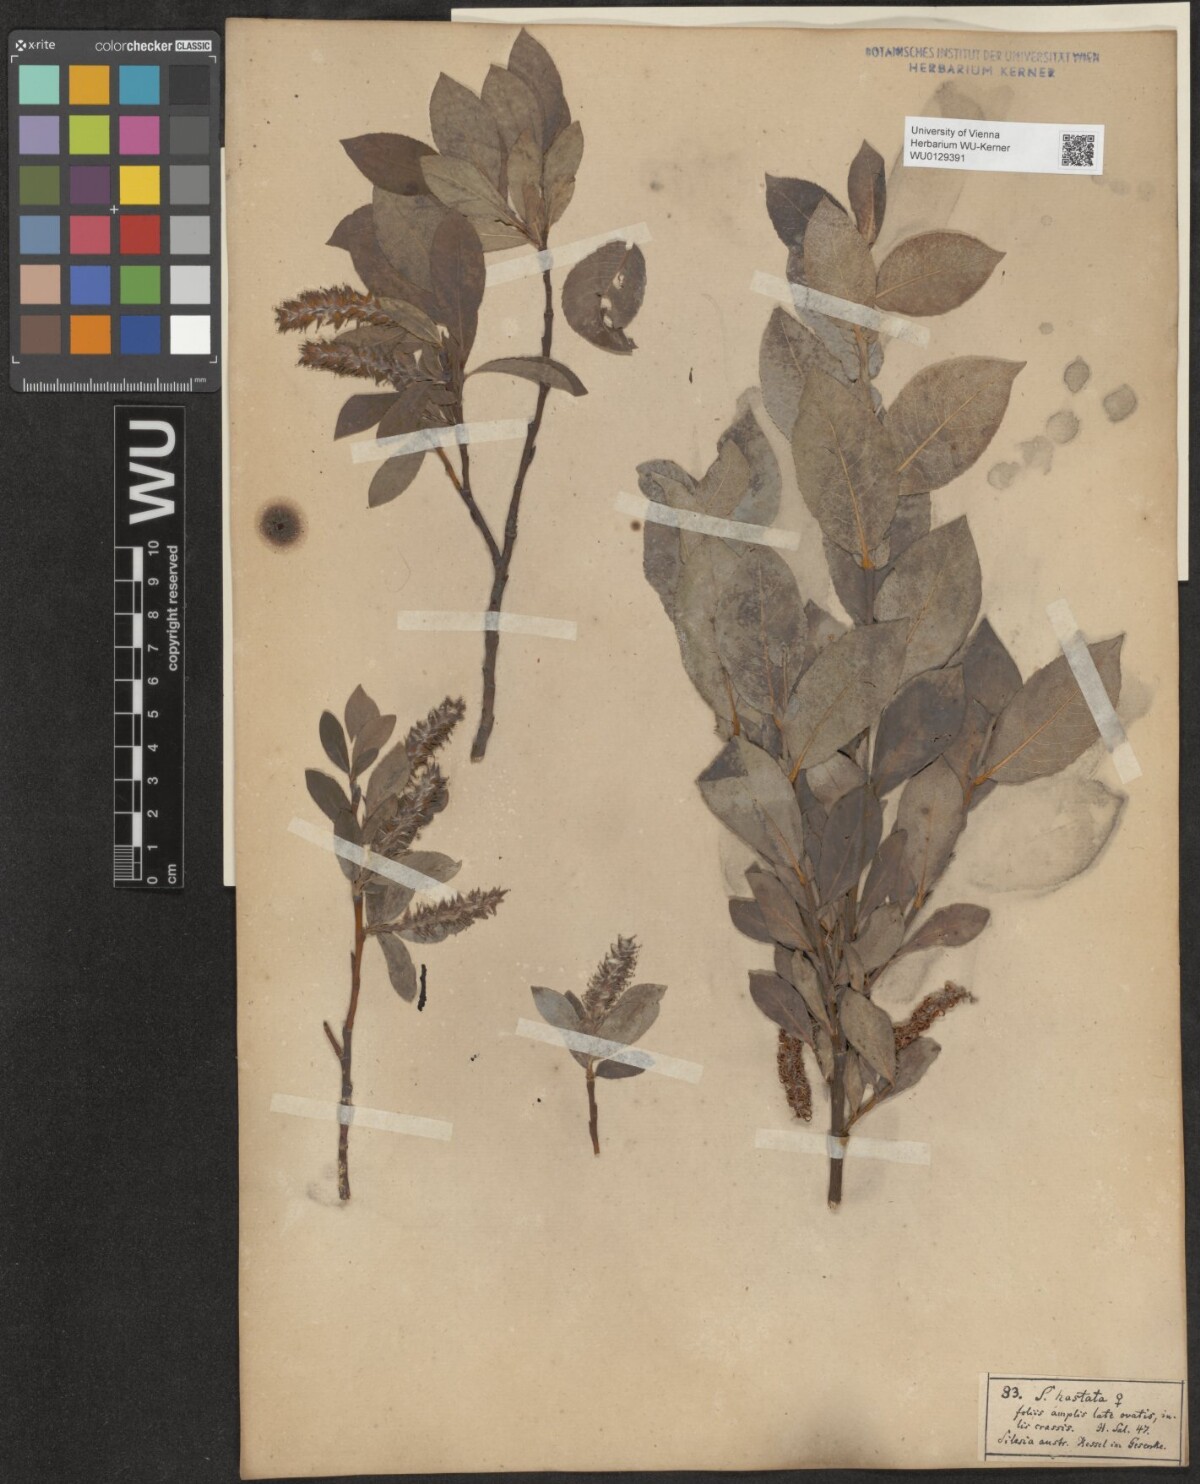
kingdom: Plantae
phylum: Tracheophyta
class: Magnoliopsida
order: Malpighiales
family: Salicaceae
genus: Salix
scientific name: Salix hastata
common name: Halberd willow
